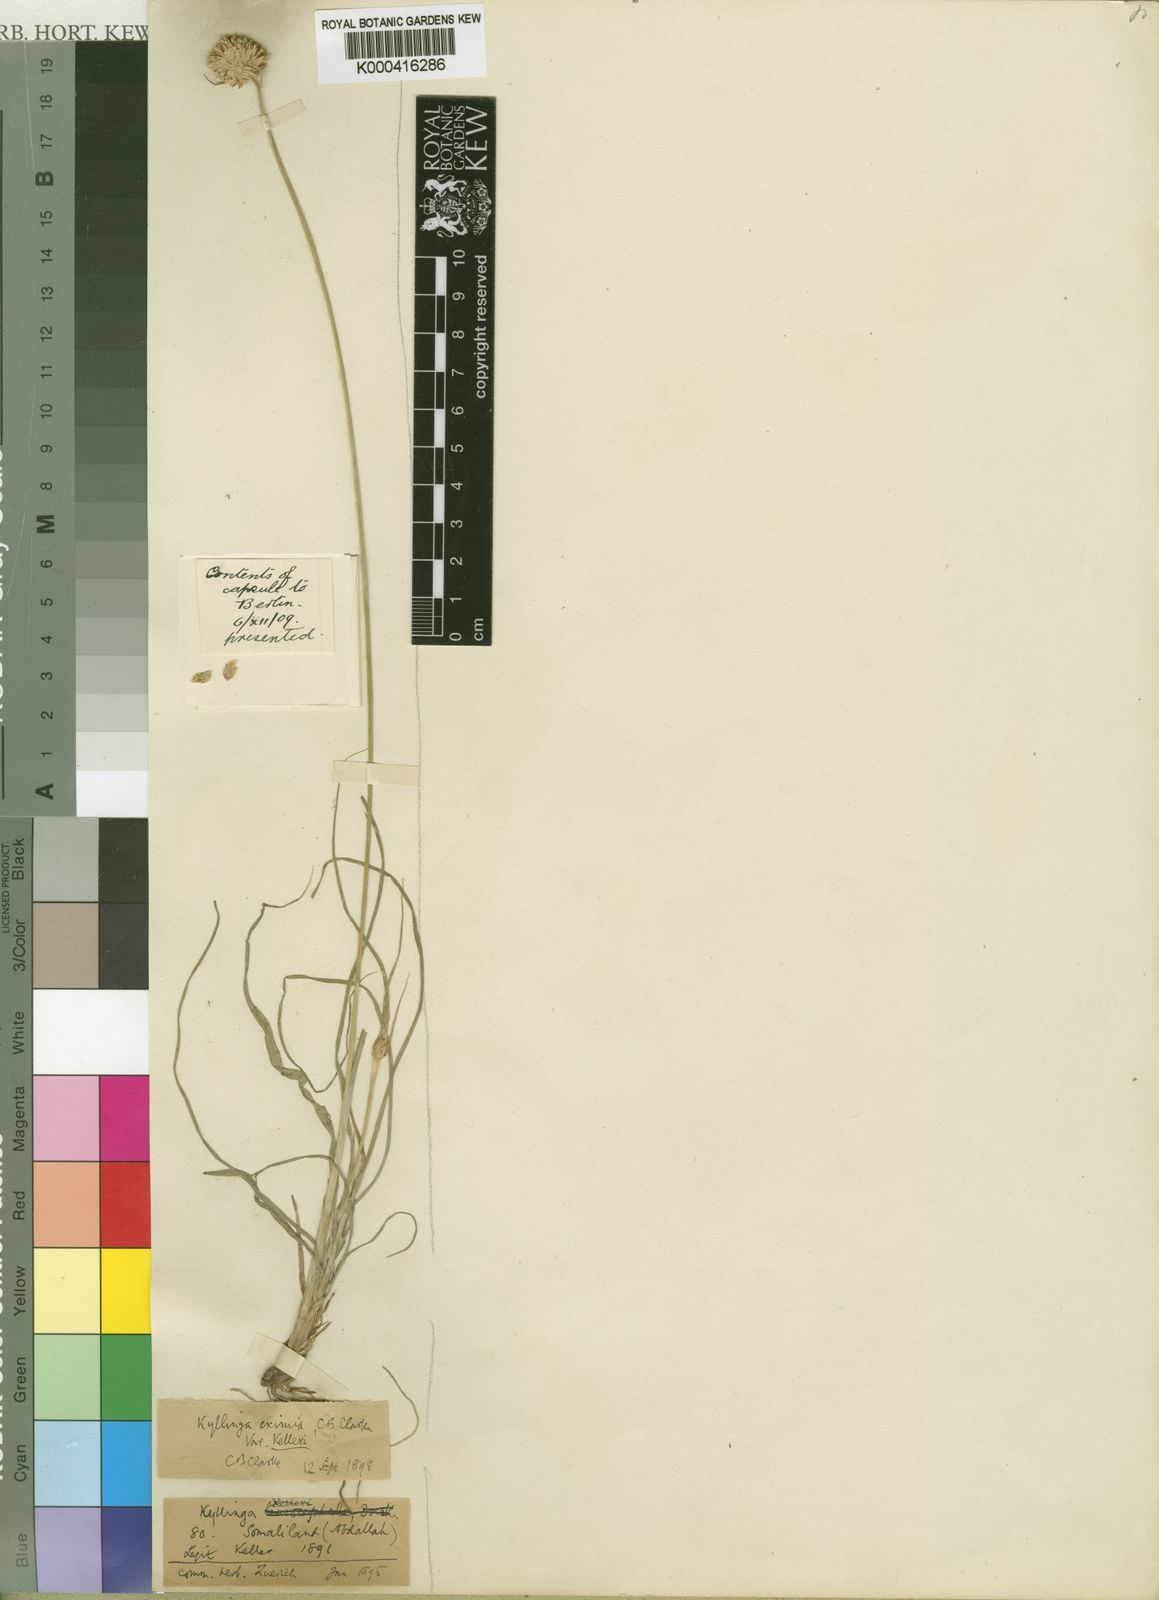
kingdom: Plantae
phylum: Tracheophyta
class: Liliopsida
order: Poales
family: Cyperaceae
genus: Cyperus
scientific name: Cyperus
